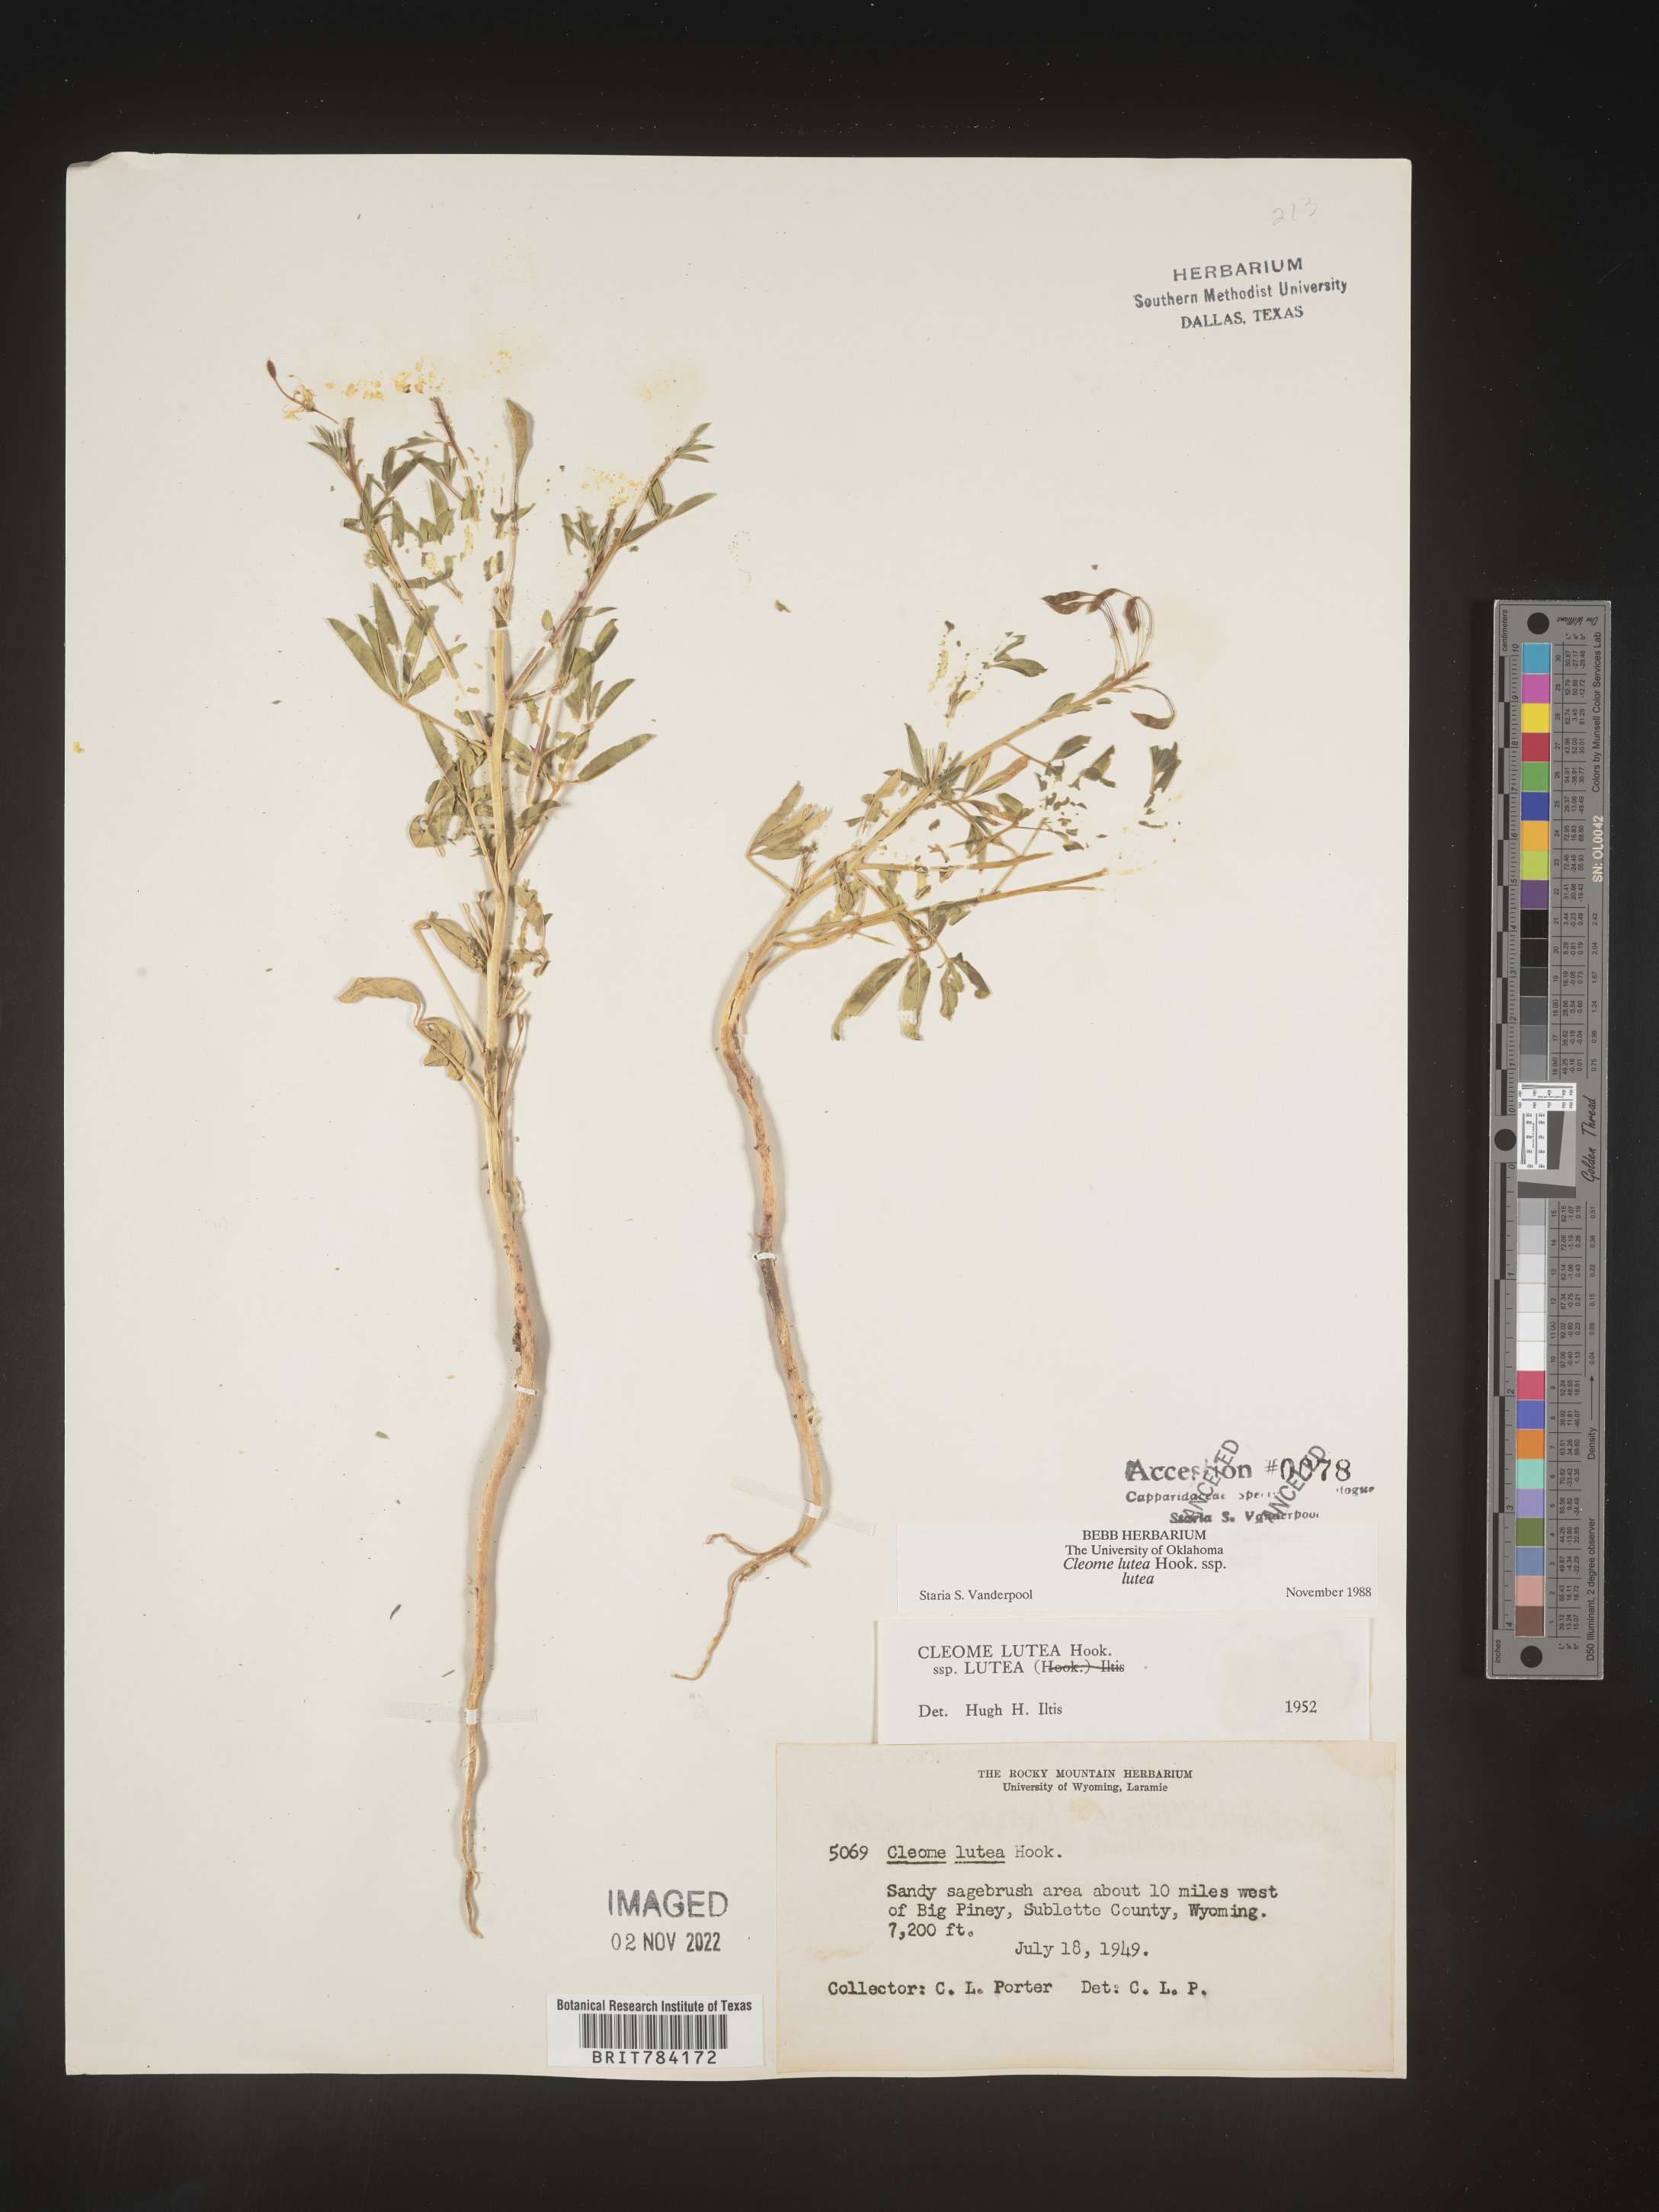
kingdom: Plantae
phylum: Tracheophyta
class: Magnoliopsida
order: Brassicales
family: Cleomaceae
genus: Cleomella
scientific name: Cleomella lutea
